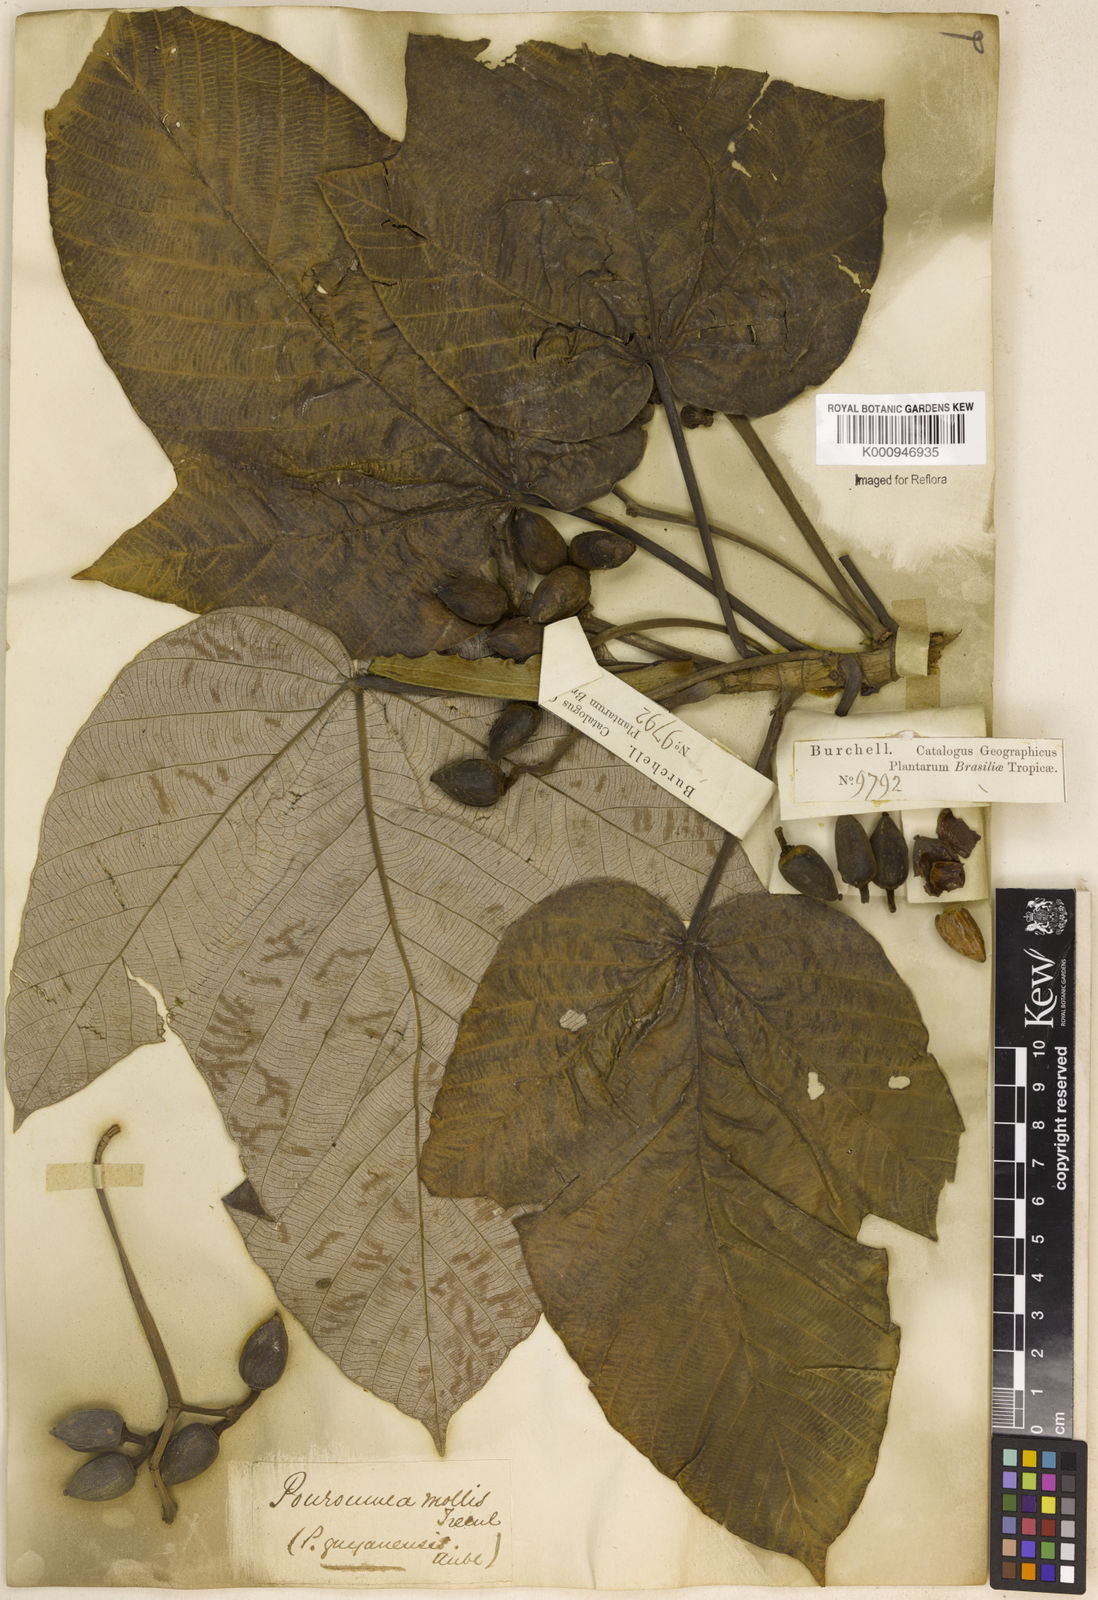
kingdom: Plantae
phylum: Tracheophyta
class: Magnoliopsida
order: Rosales
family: Urticaceae
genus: Pourouma
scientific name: Pourouma
